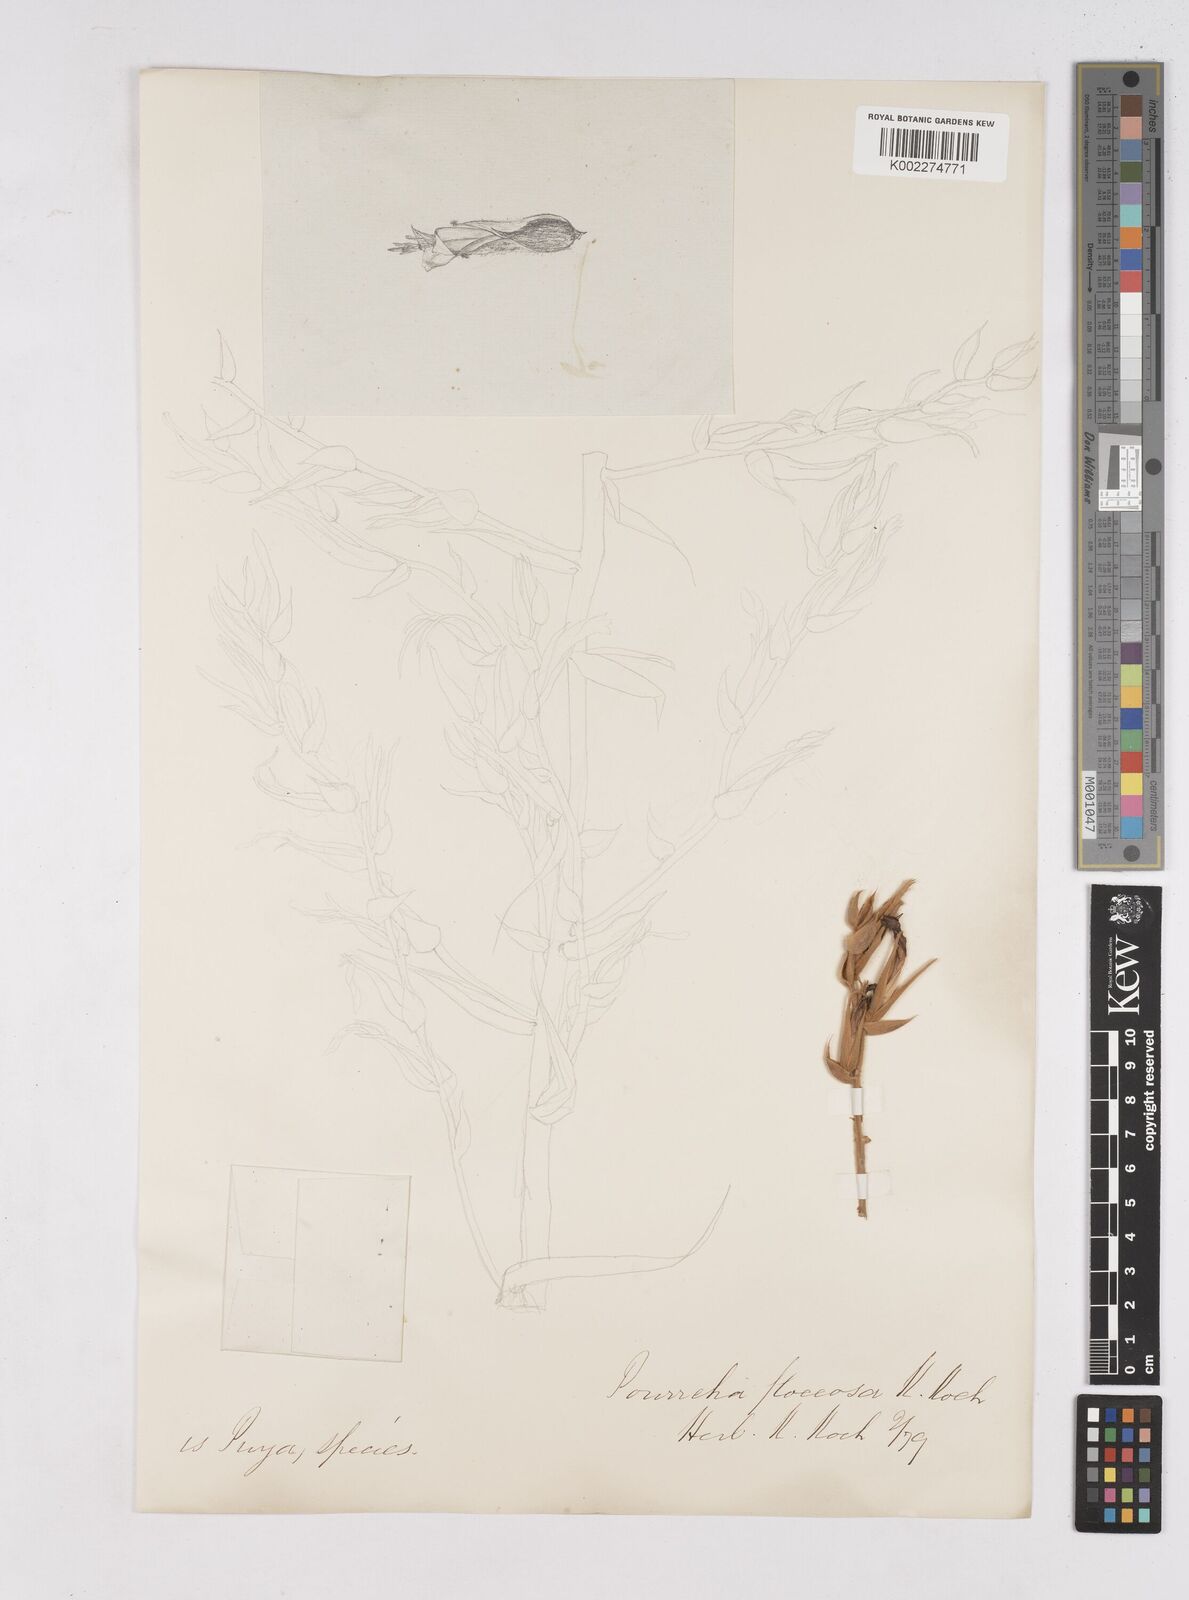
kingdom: Plantae
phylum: Tracheophyta
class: Liliopsida
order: Poales
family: Bromeliaceae
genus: Puya
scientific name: Puya floccosa
